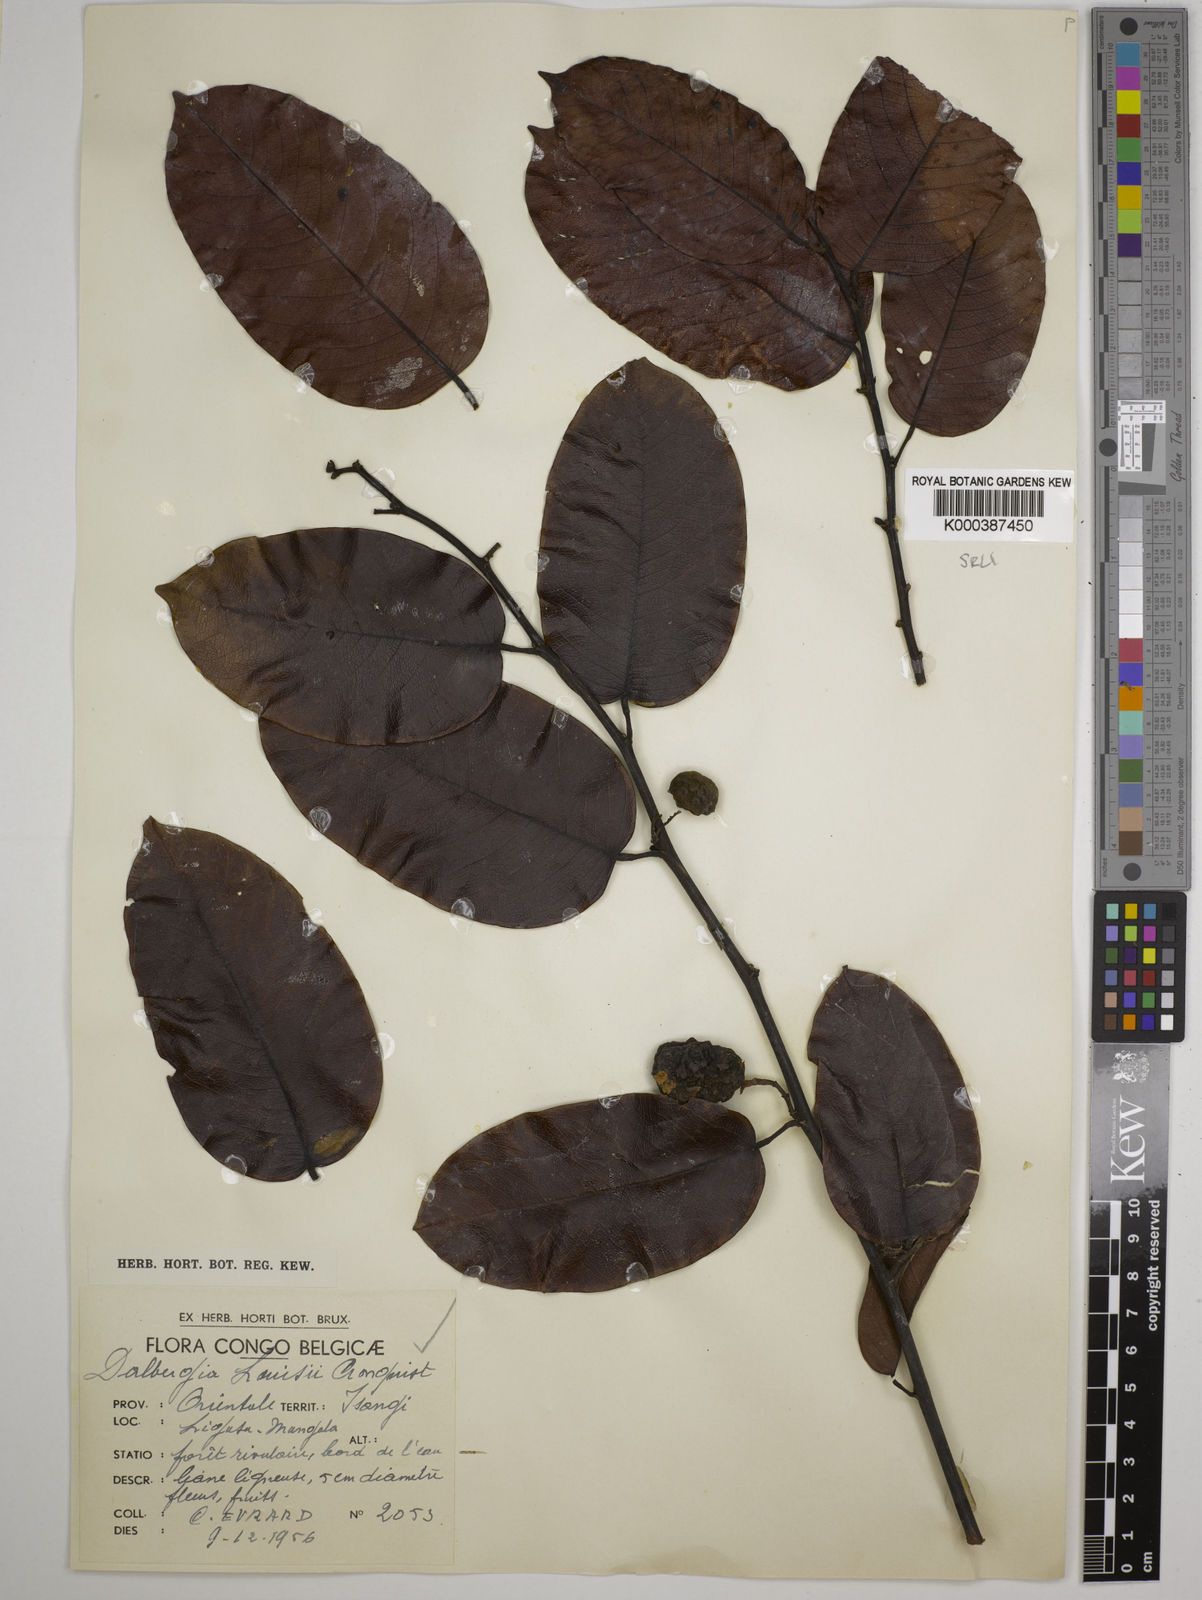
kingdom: Plantae
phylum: Tracheophyta
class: Magnoliopsida
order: Fabales
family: Fabaceae
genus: Dalbergia
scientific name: Dalbergia louisii
